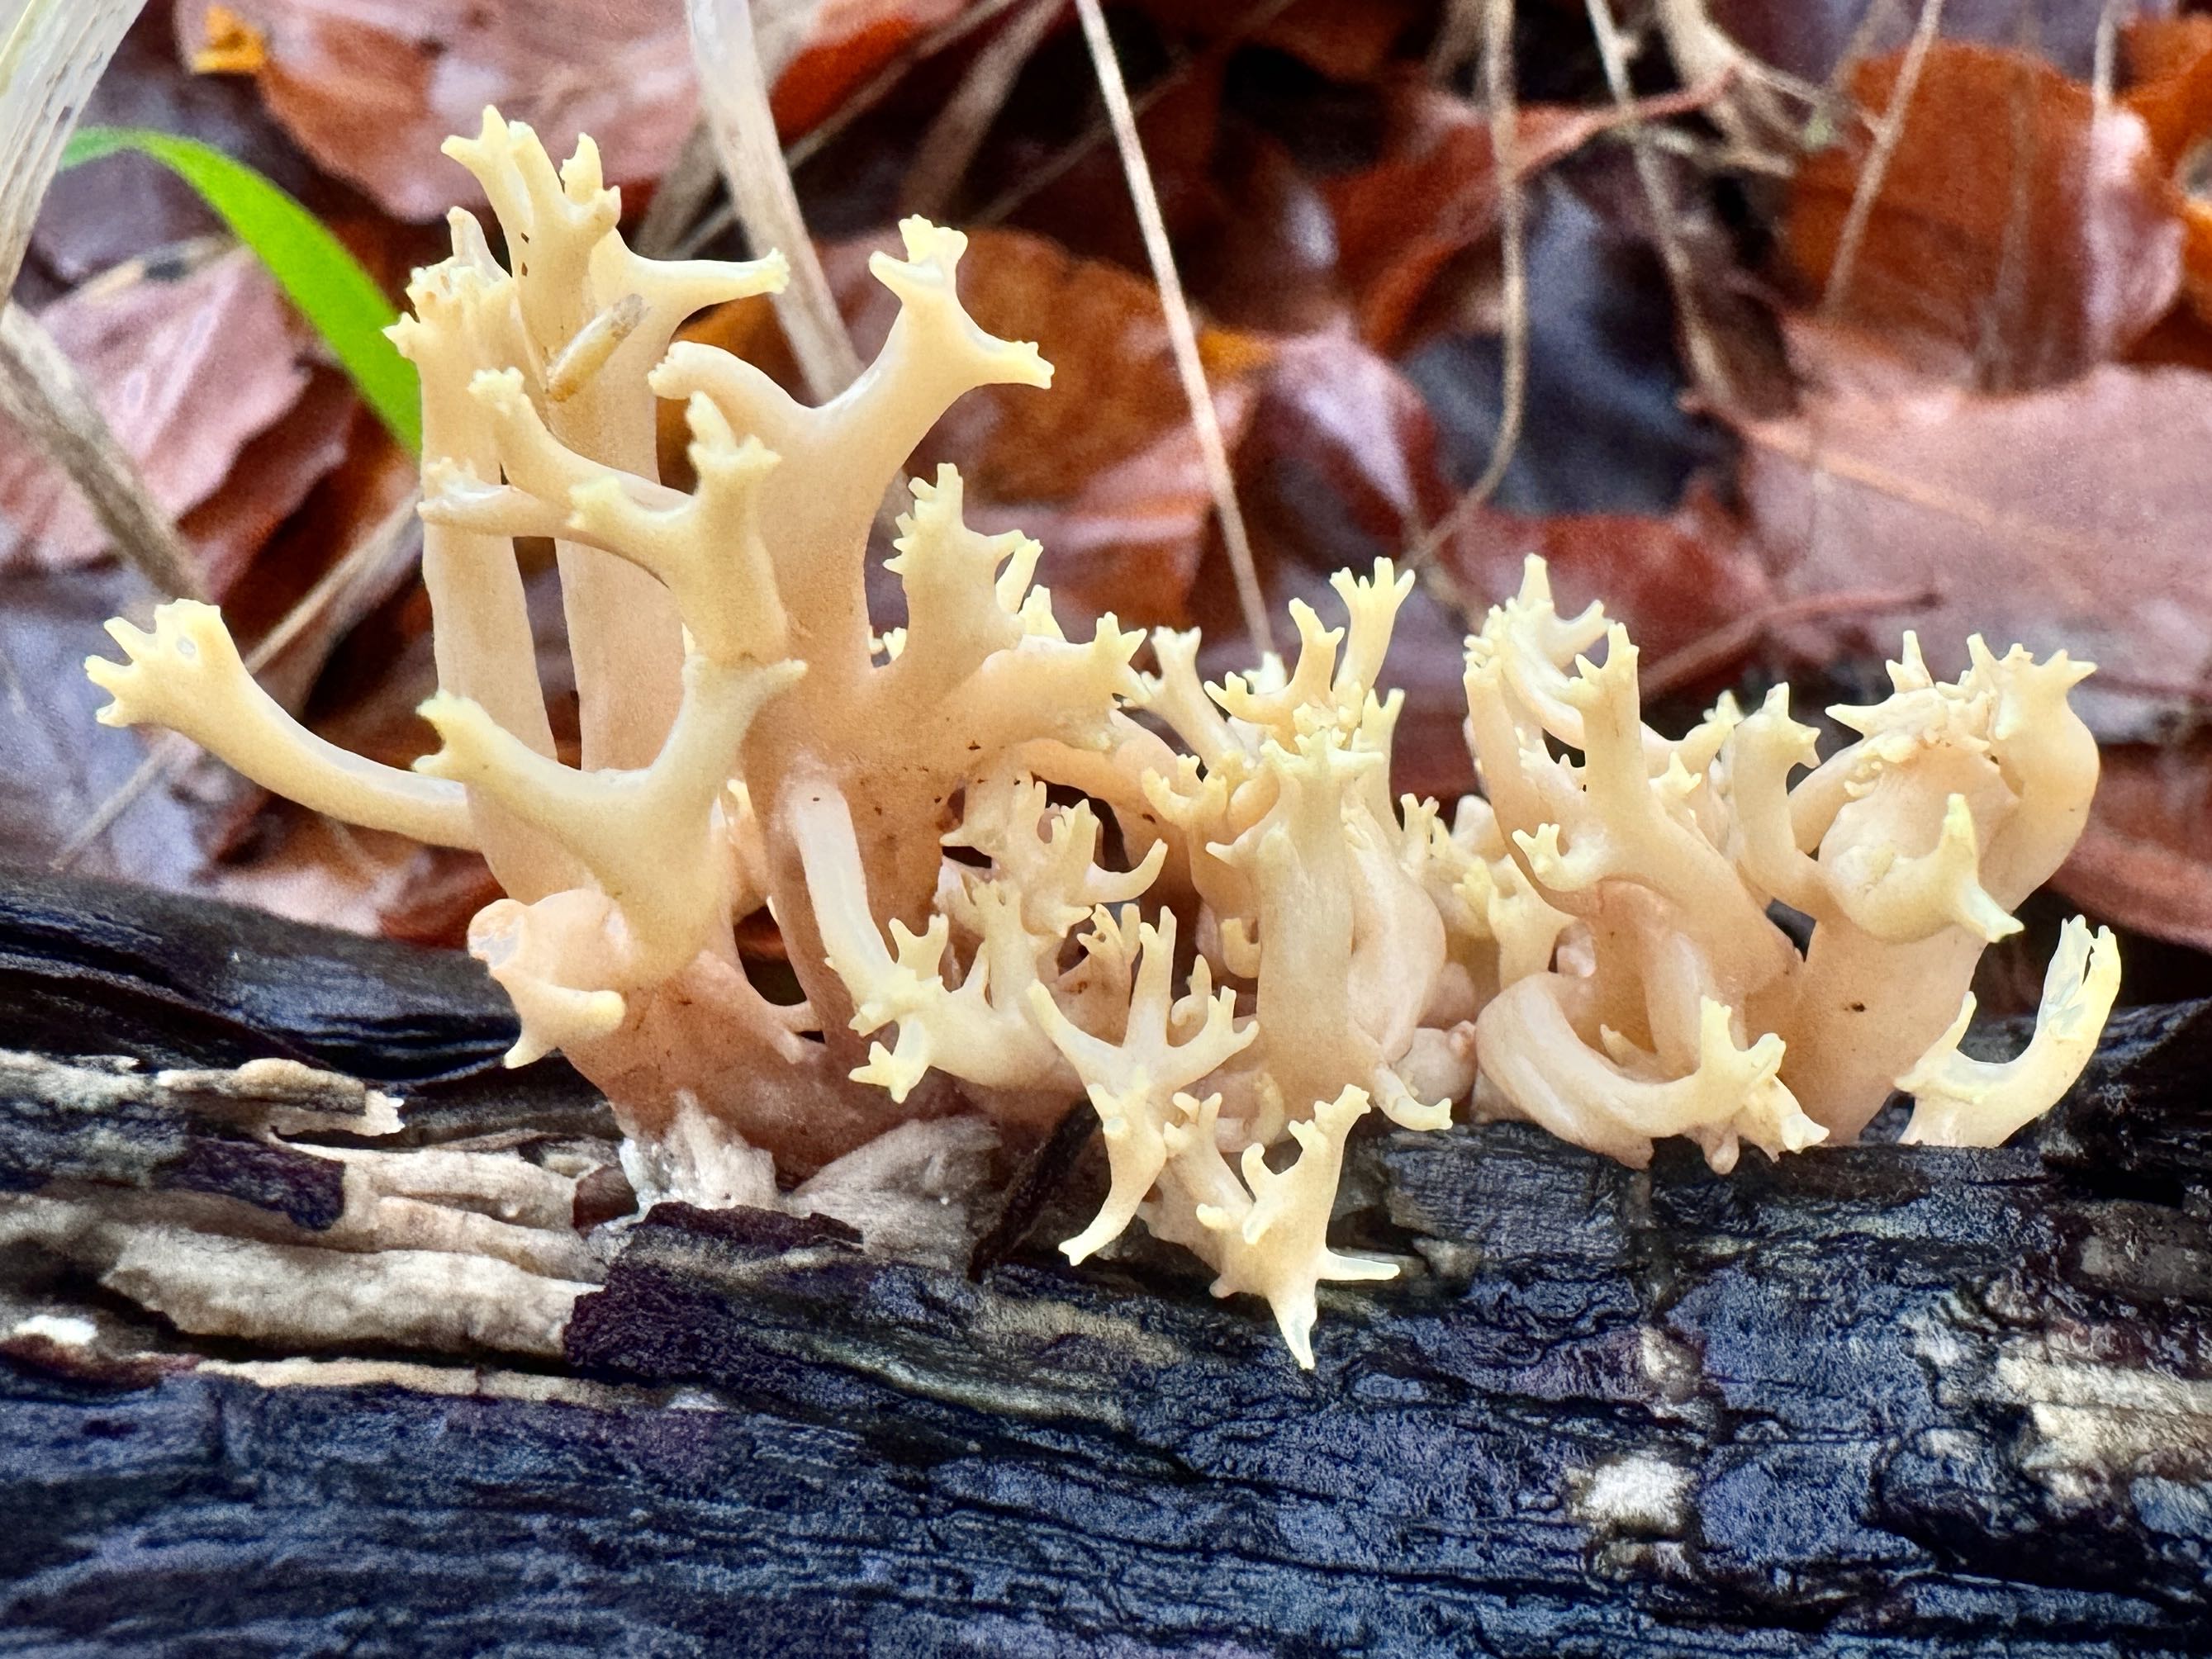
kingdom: Fungi
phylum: Basidiomycota
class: Agaricomycetes
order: Gomphales
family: Gomphaceae
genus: Ramaria
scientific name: Ramaria stricta
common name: rank koralsvamp
